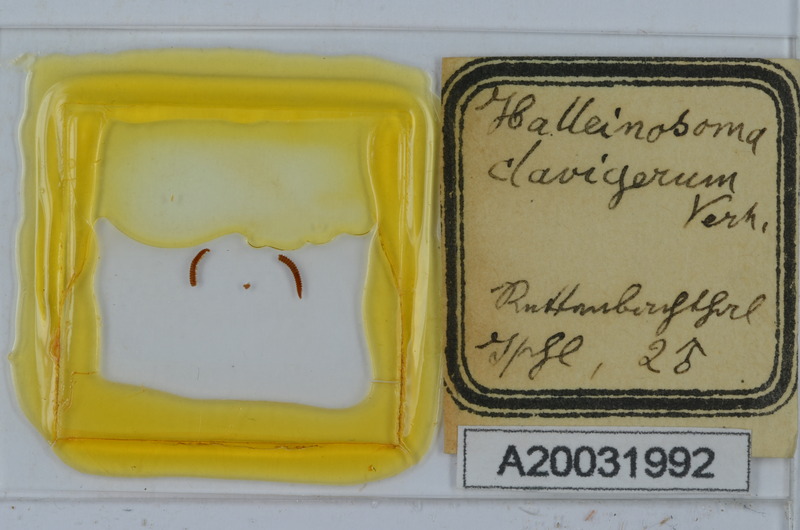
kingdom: Animalia
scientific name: Animalia
